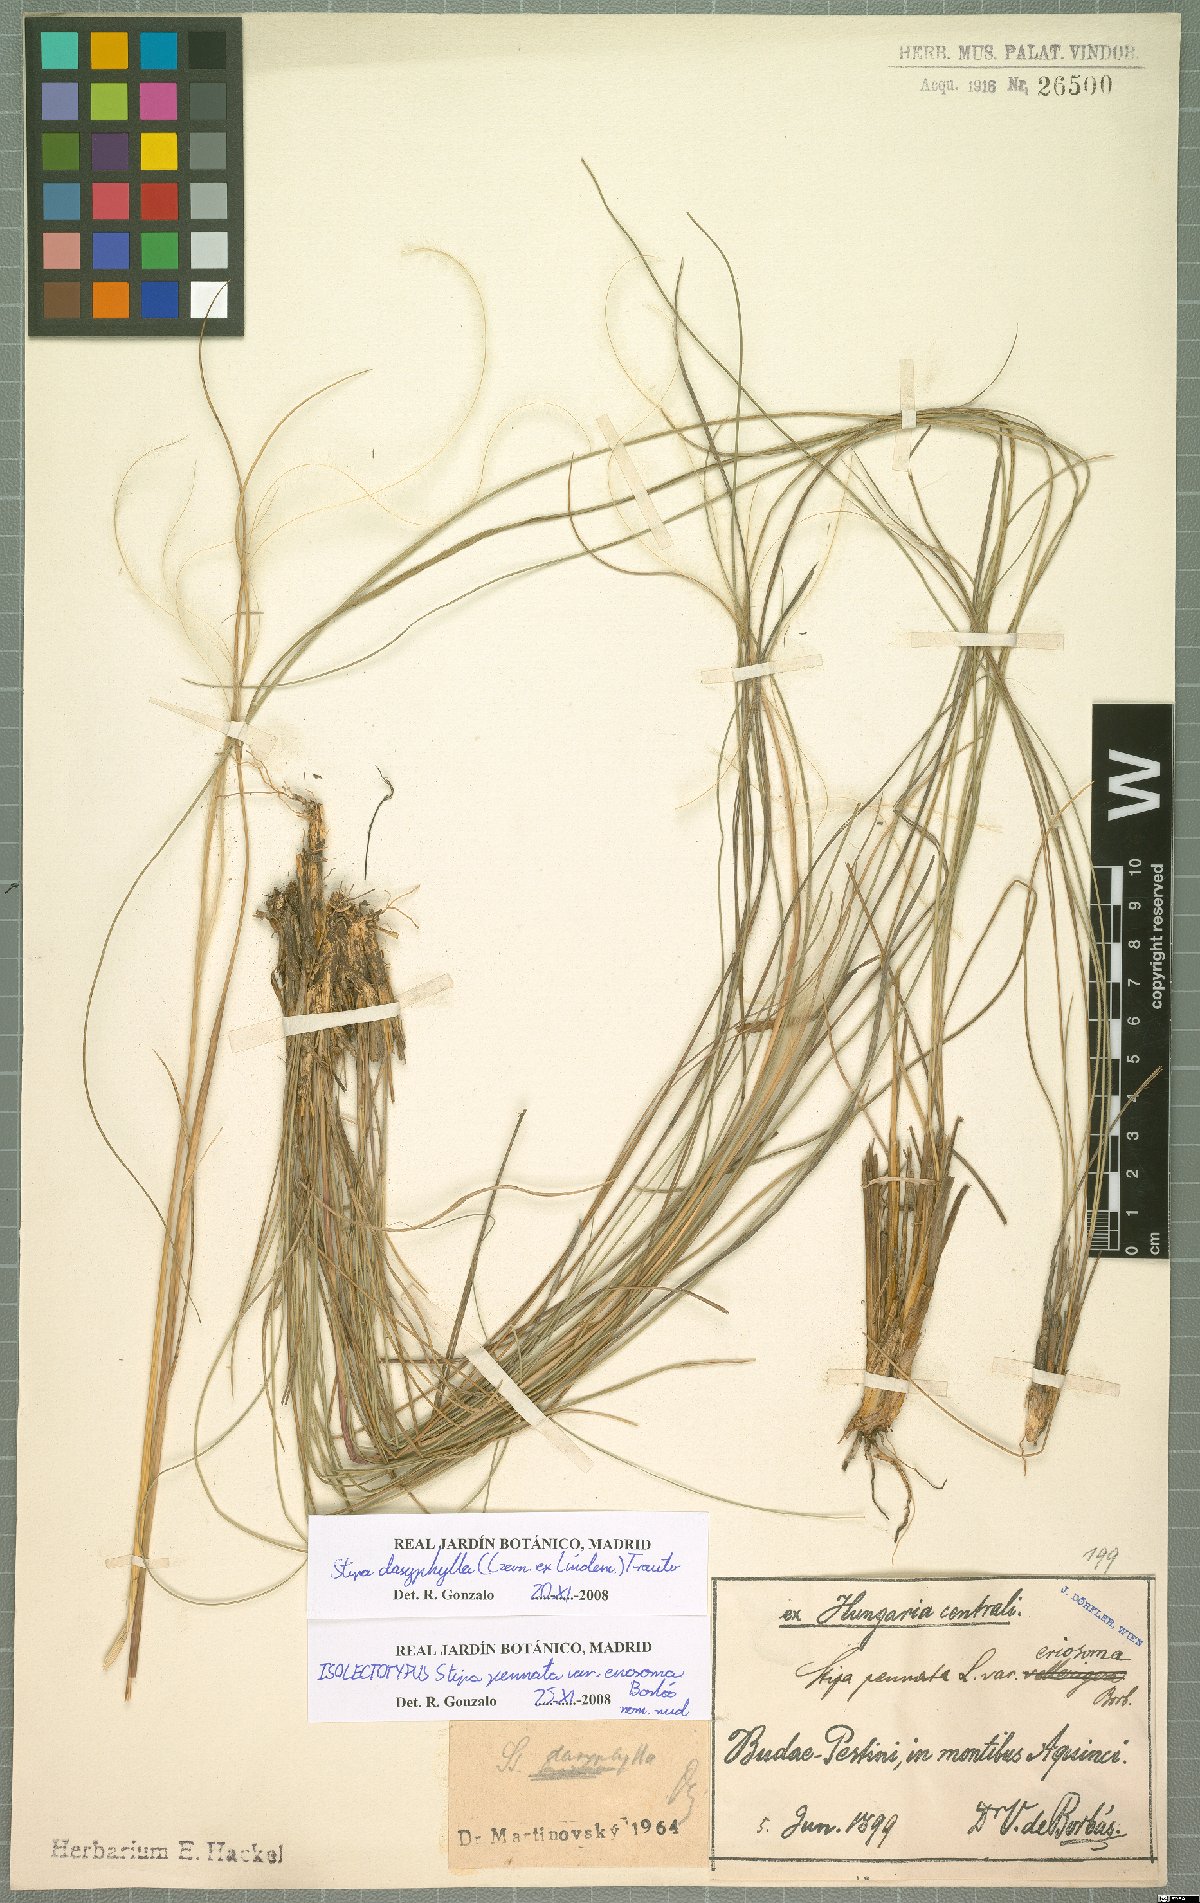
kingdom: Plantae
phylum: Tracheophyta
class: Liliopsida
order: Poales
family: Poaceae
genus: Stipa
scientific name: Stipa dasyphylla
